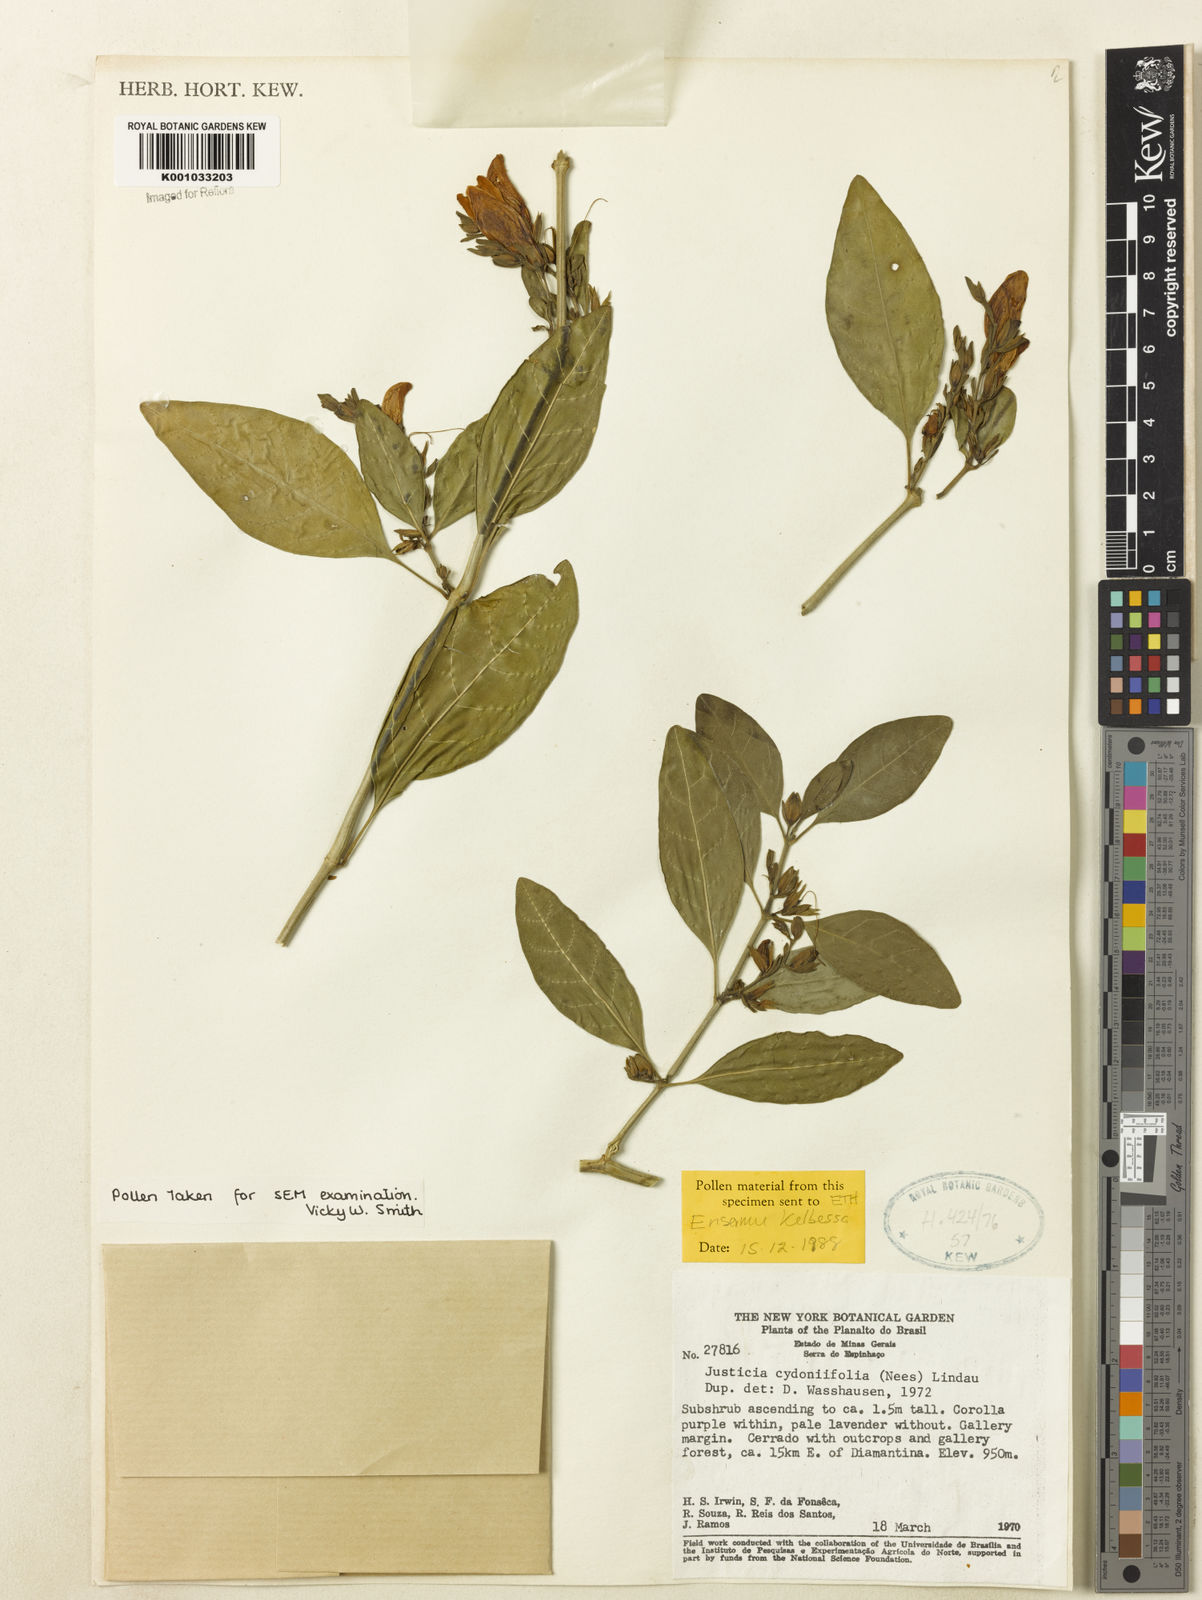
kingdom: Plantae
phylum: Tracheophyta
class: Magnoliopsida
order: Lamiales
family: Acanthaceae
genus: Justicia
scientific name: Justicia
